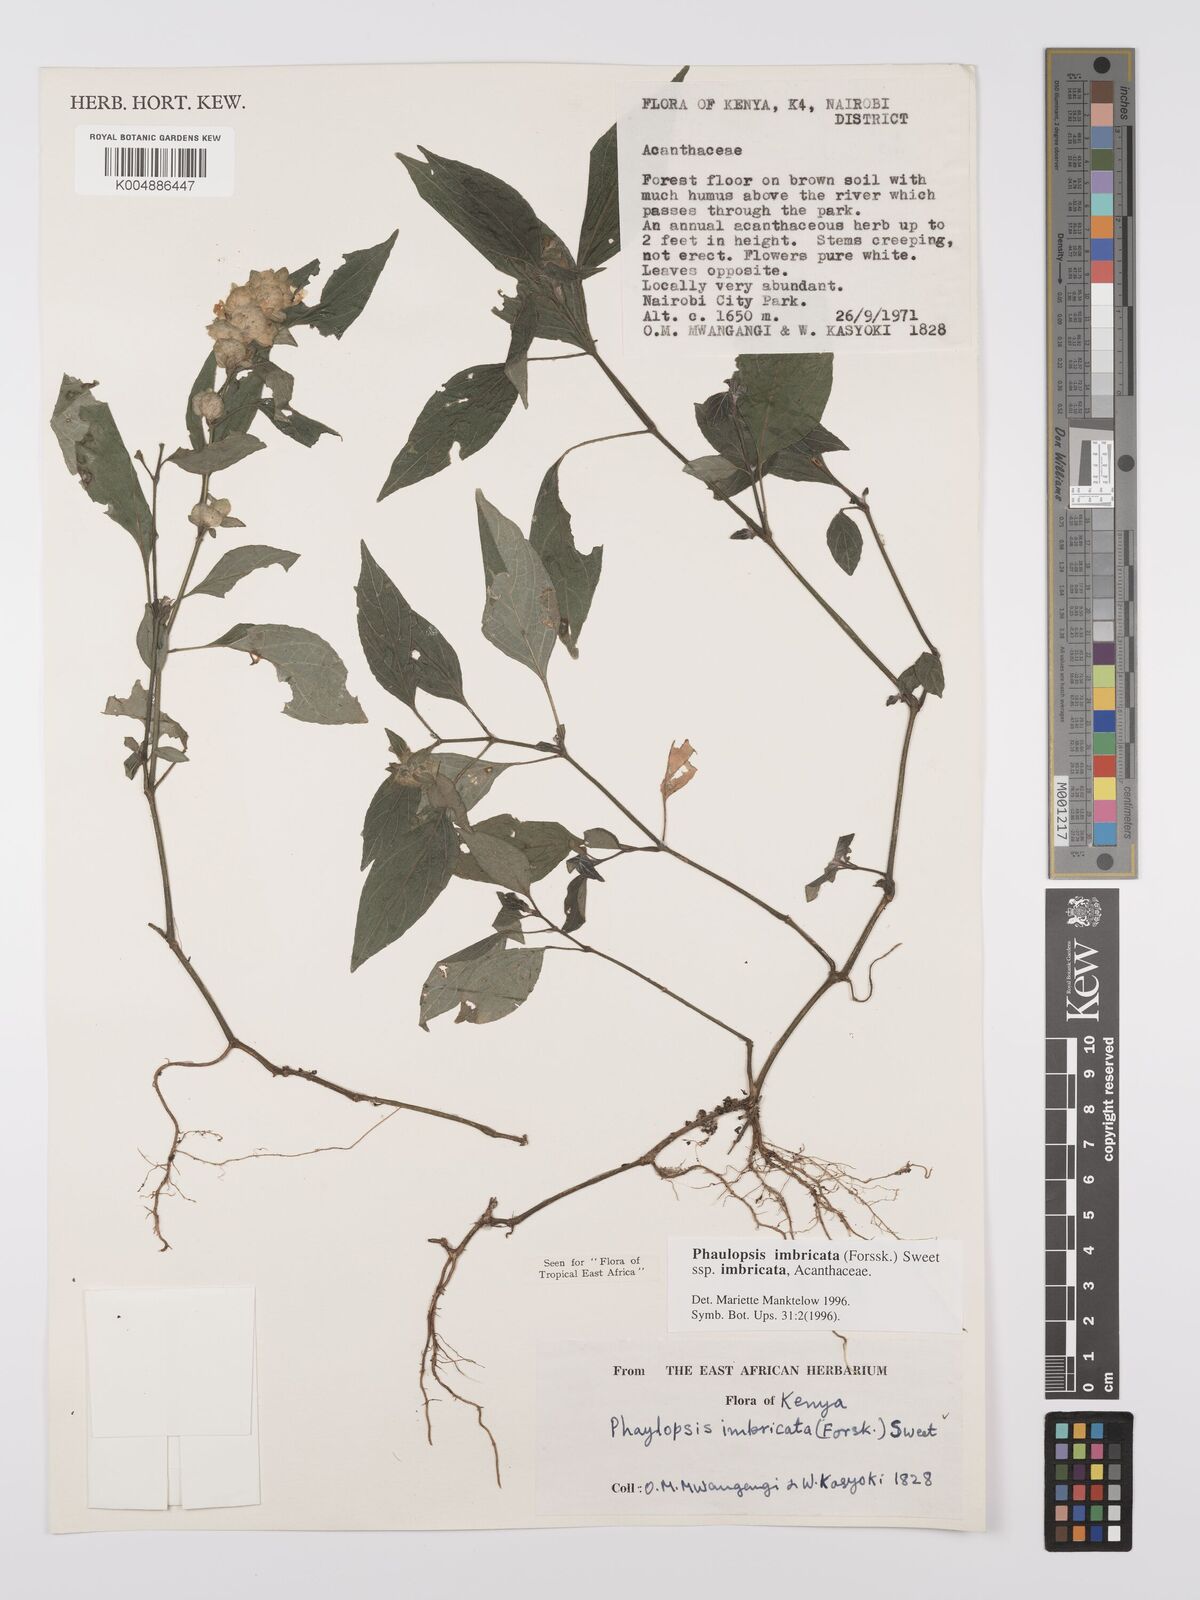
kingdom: Plantae
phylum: Tracheophyta
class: Magnoliopsida
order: Lamiales
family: Acanthaceae
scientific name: Acanthaceae
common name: Acanthaceae
